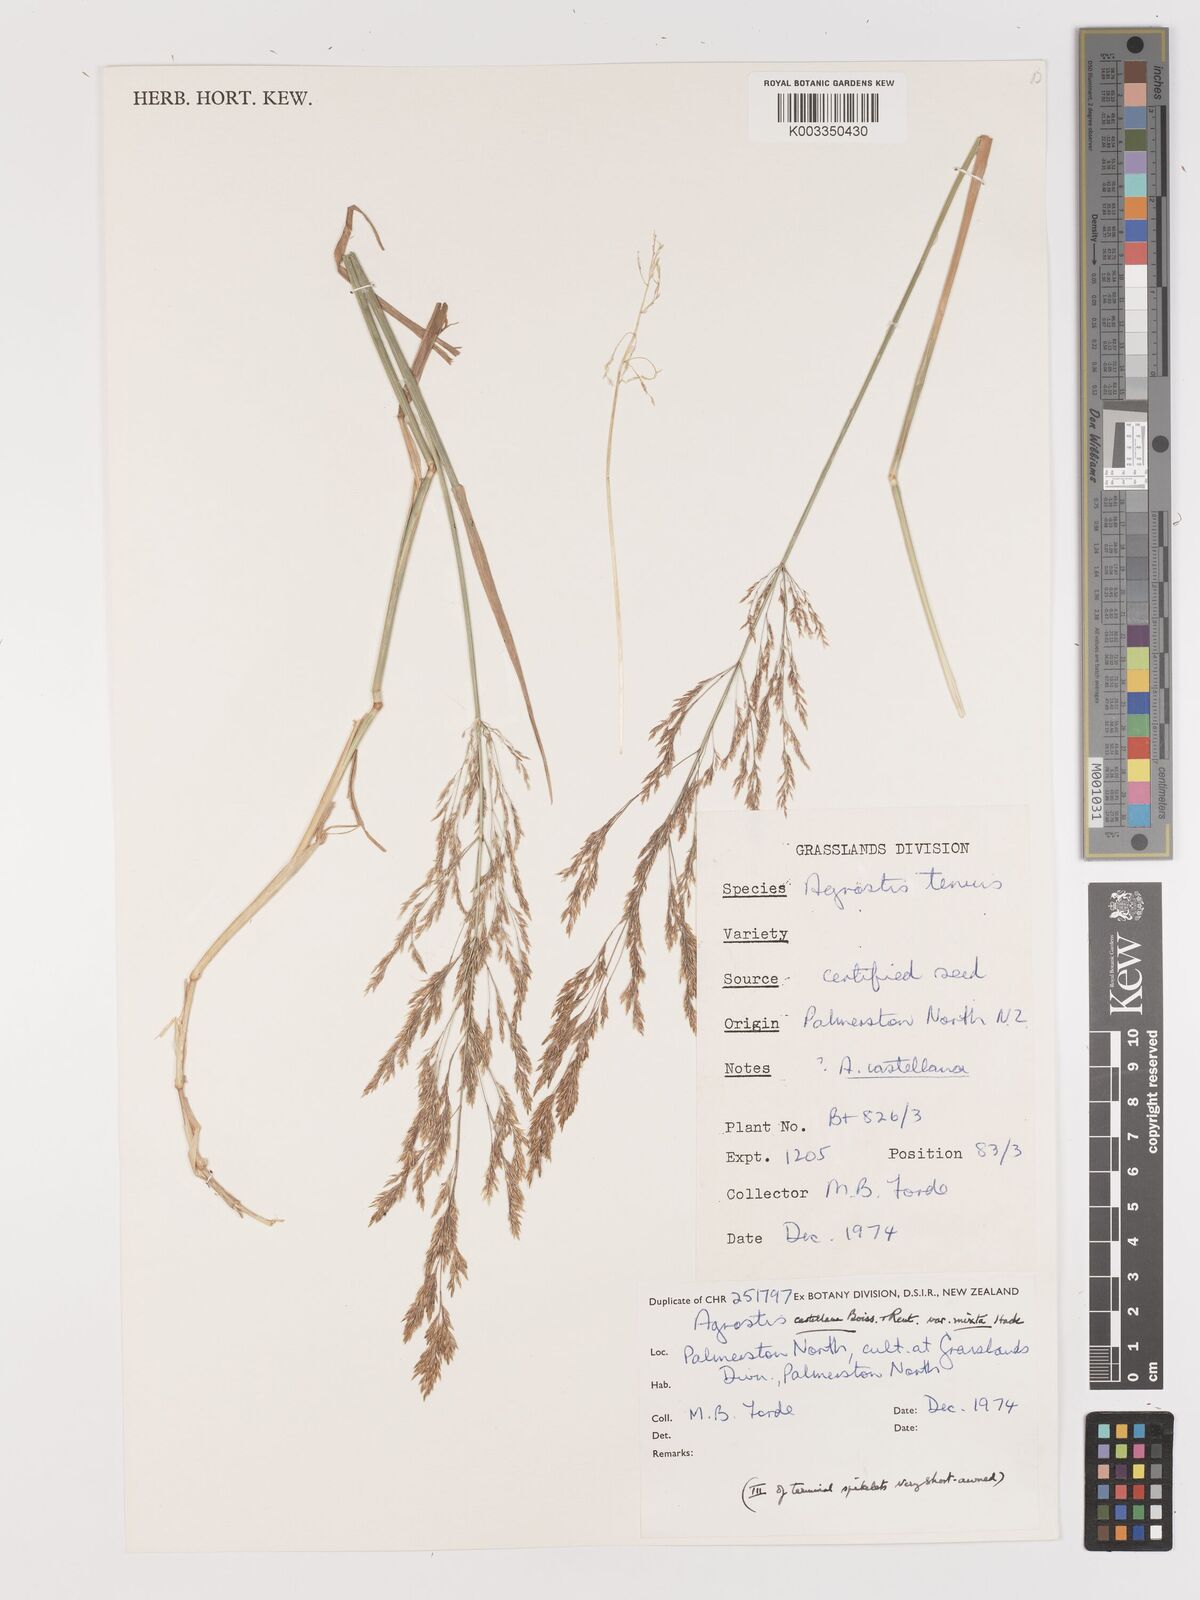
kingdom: Plantae
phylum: Tracheophyta
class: Liliopsida
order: Poales
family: Poaceae
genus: Agrostis
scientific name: Agrostis castellana
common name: Highland bent
